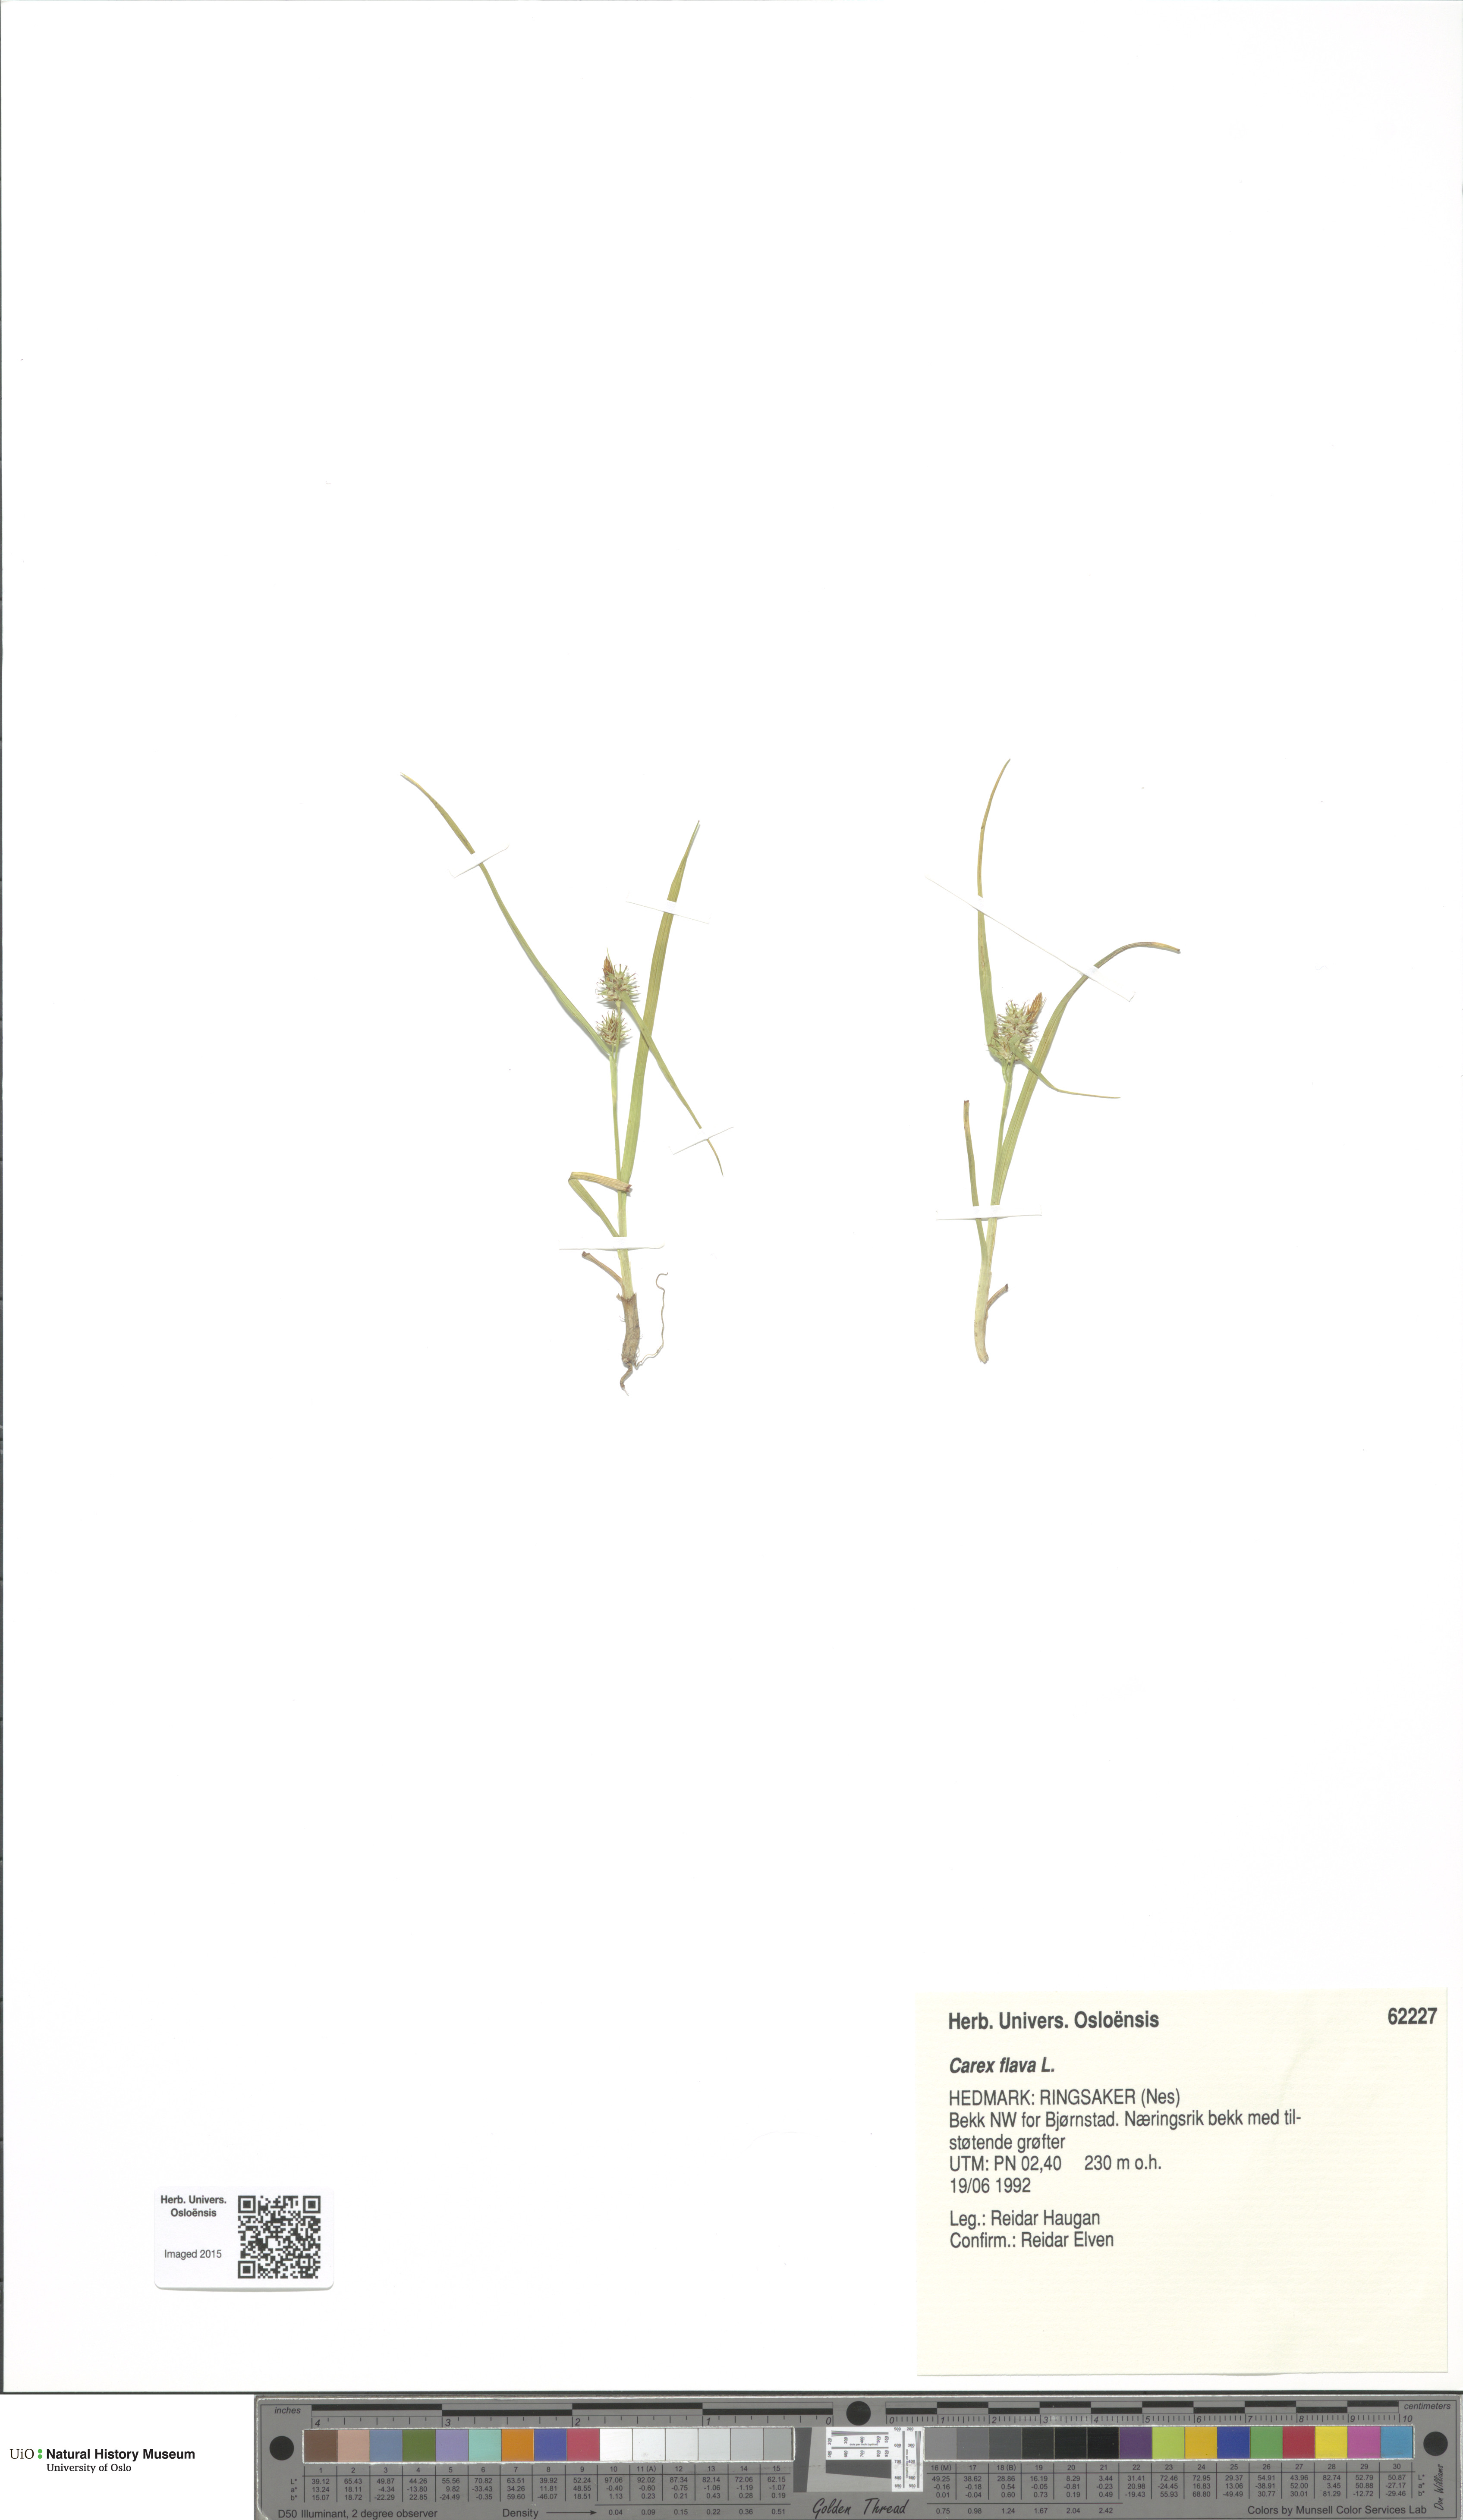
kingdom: Plantae
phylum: Tracheophyta
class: Liliopsida
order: Poales
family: Cyperaceae
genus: Carex
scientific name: Carex flava
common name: Large yellow-sedge
